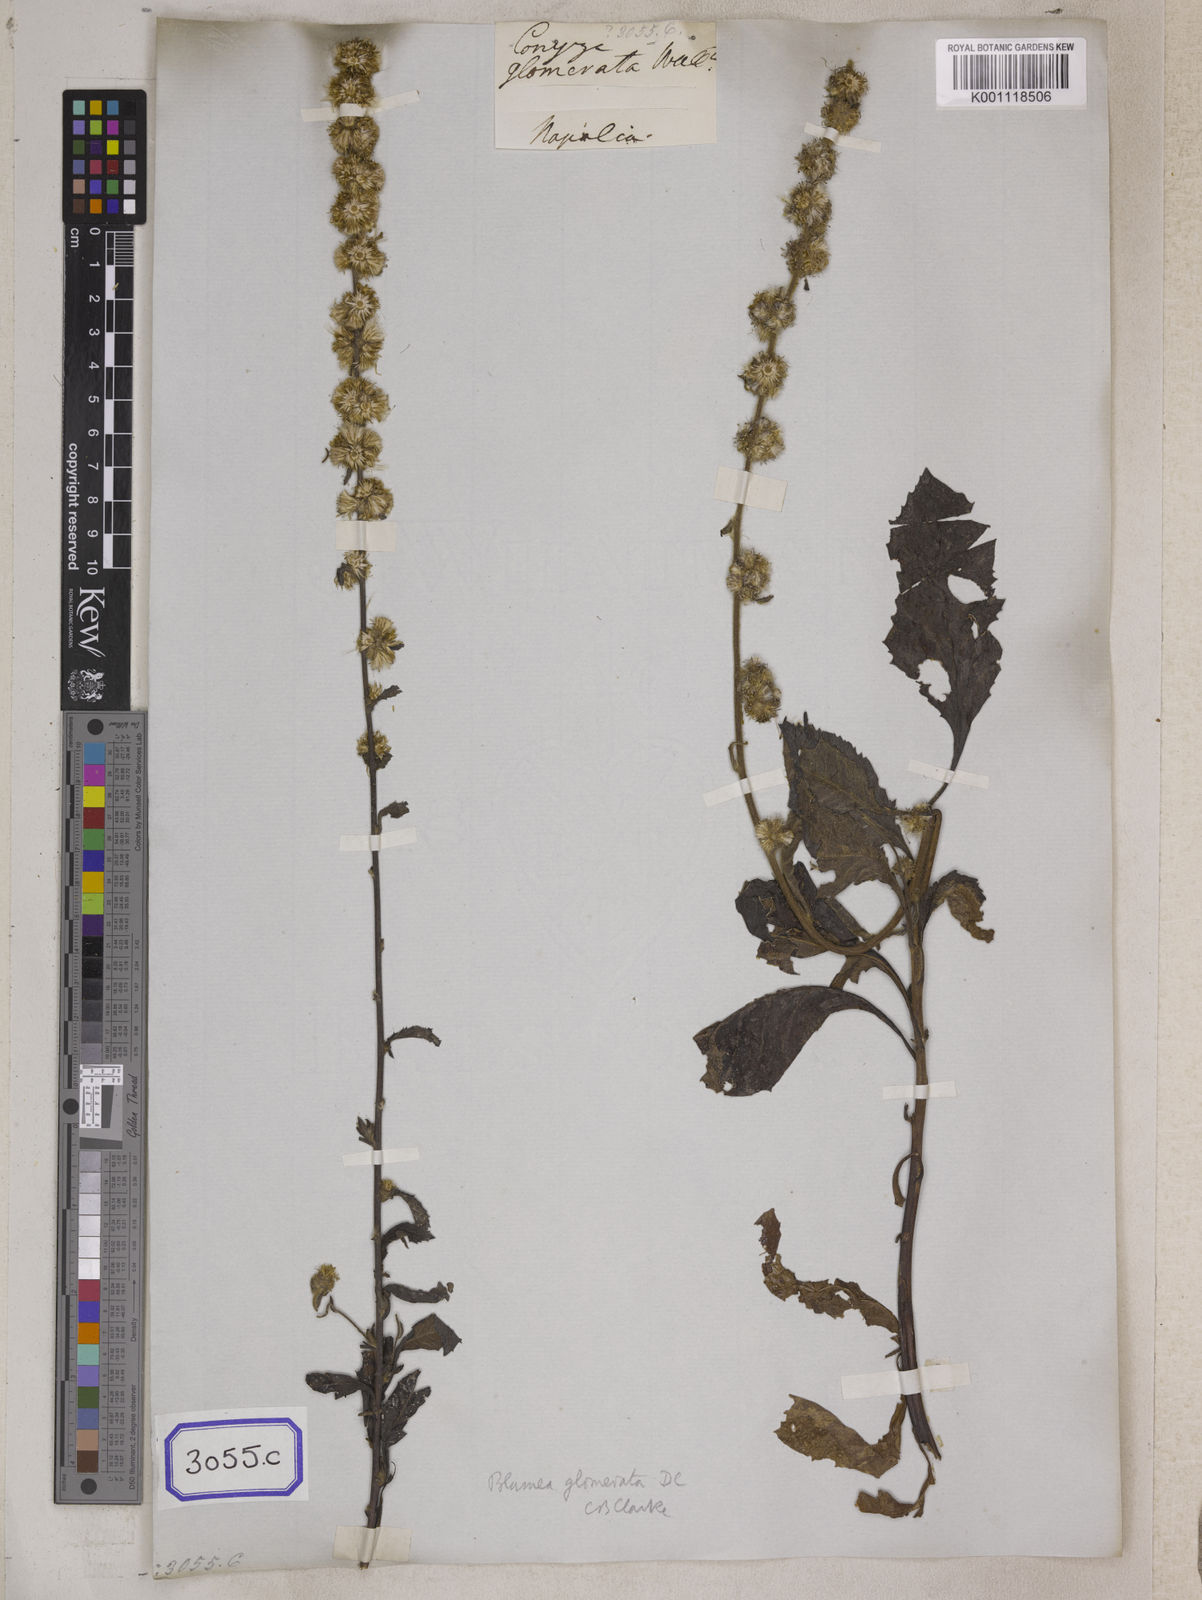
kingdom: Plantae
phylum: Tracheophyta
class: Magnoliopsida
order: Asterales
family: Asteraceae
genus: Blumea
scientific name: Blumea fistulosa
